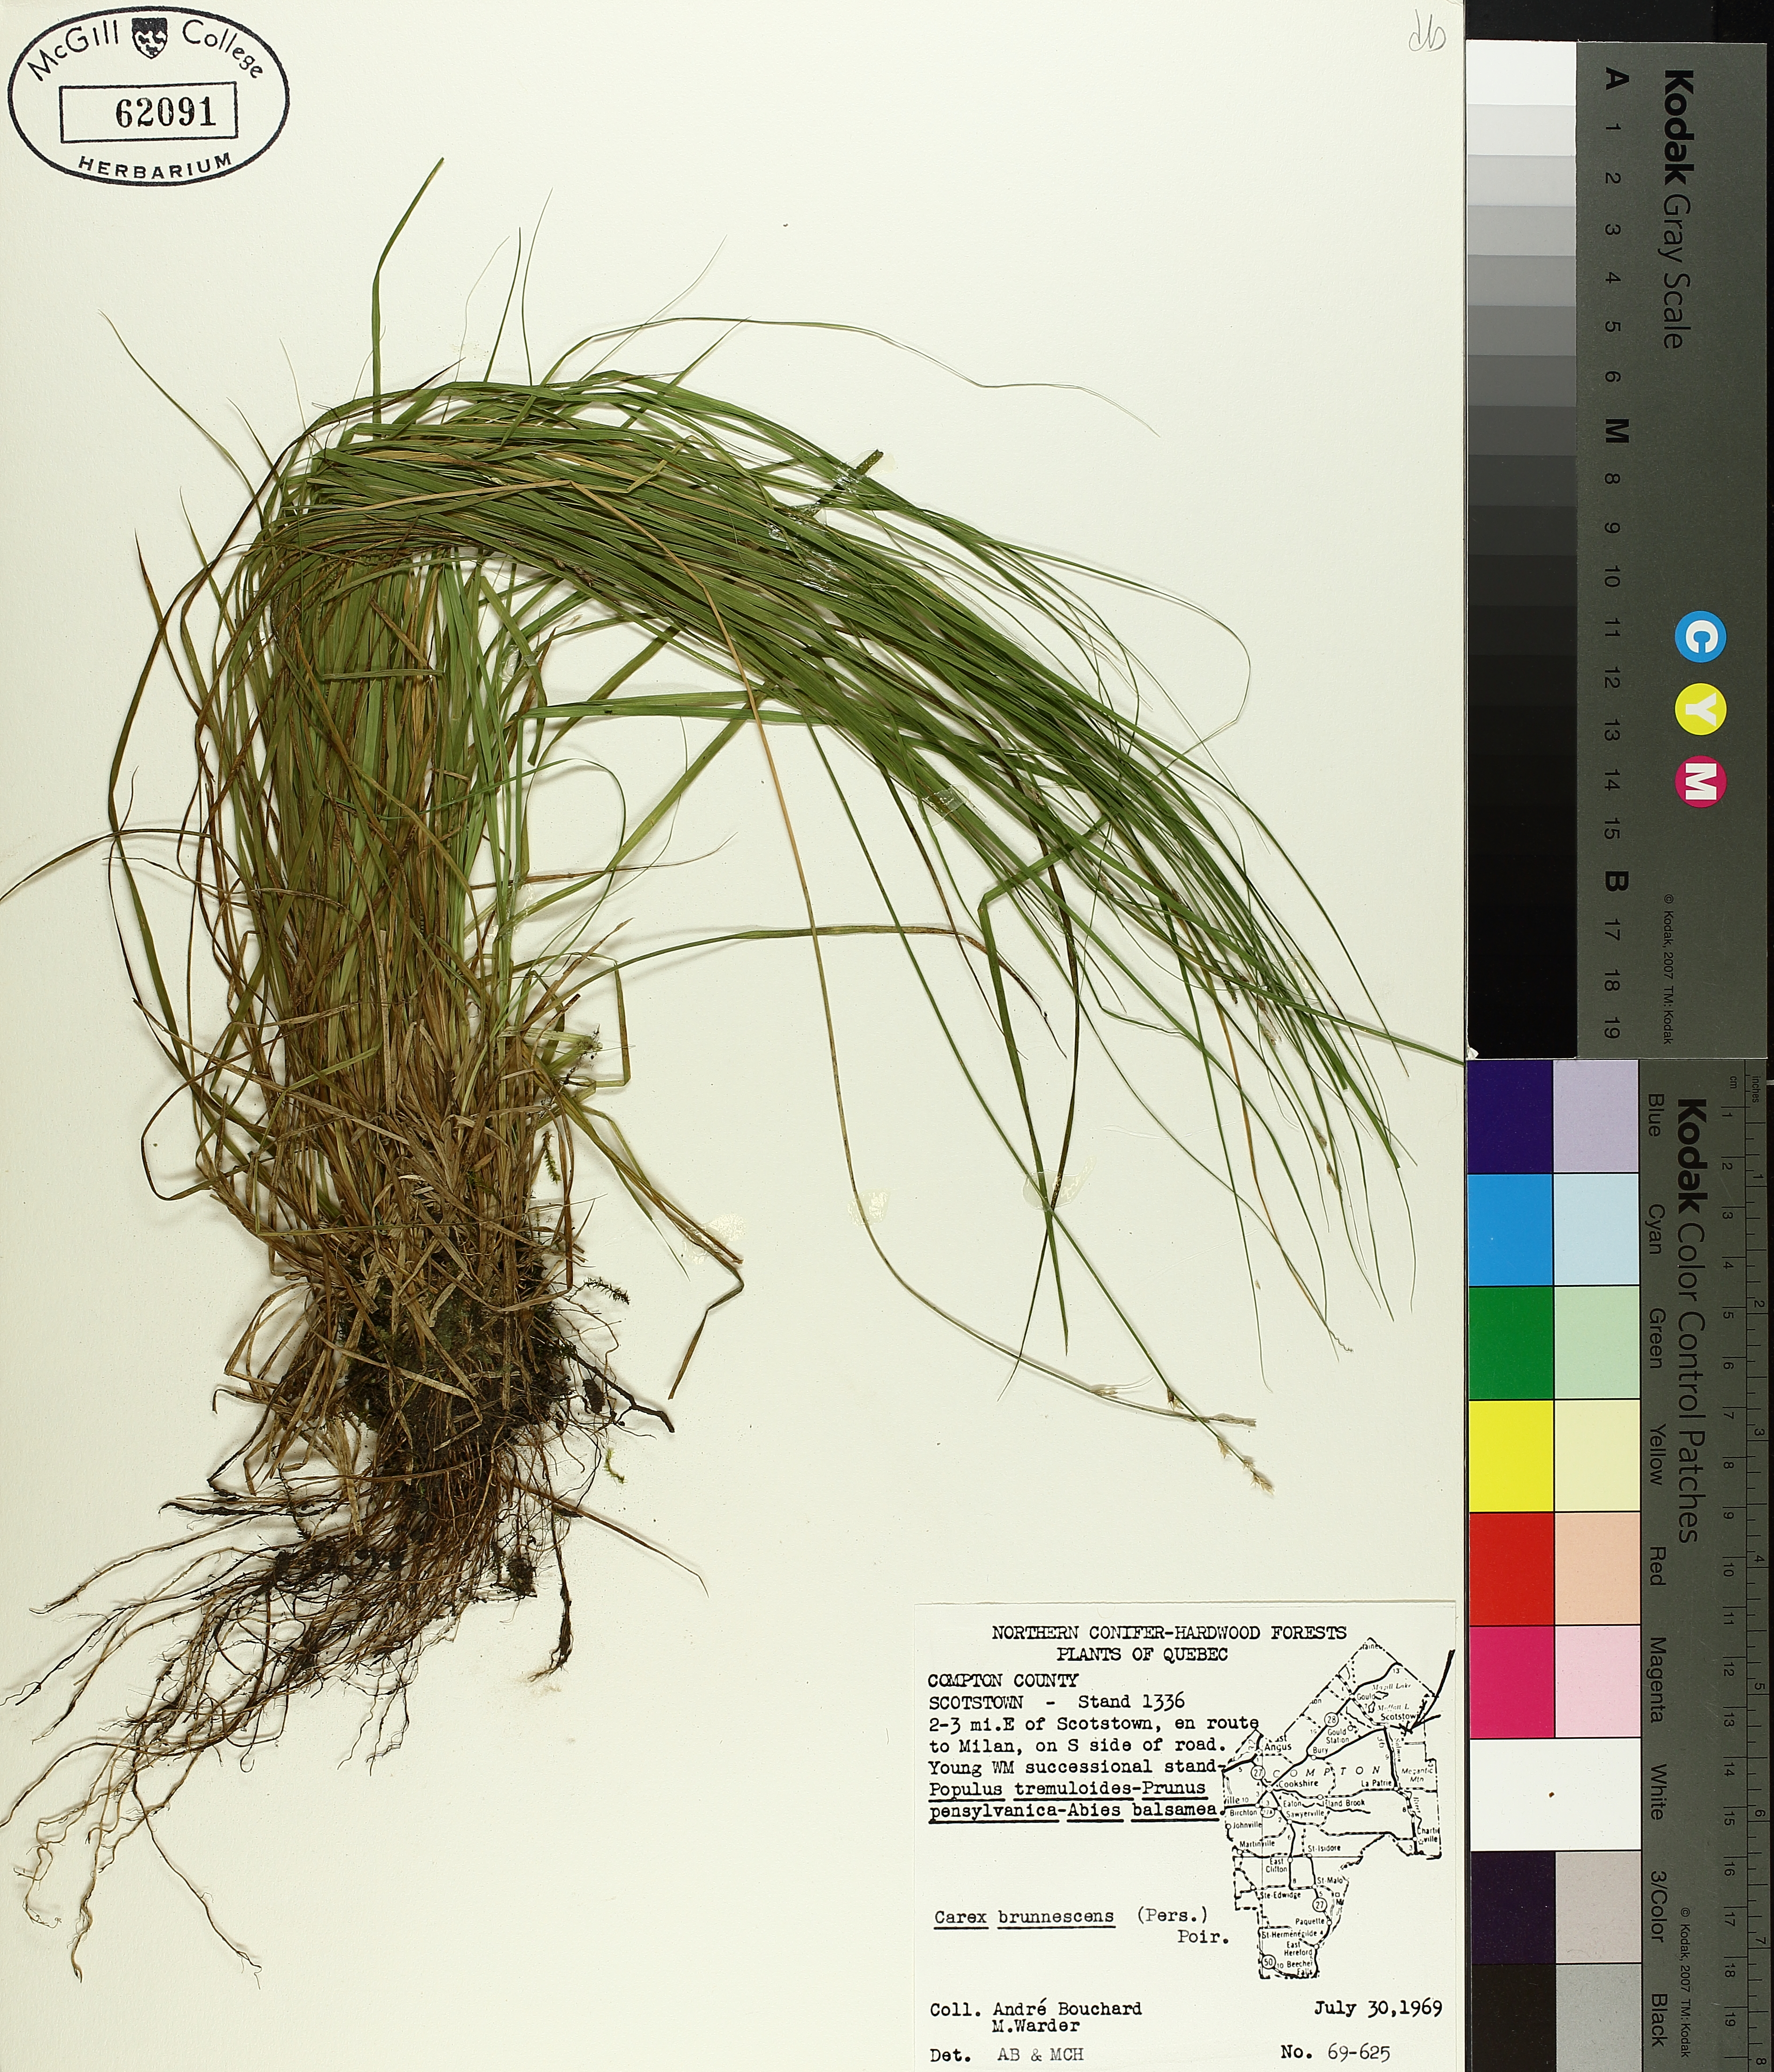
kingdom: Plantae
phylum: Tracheophyta
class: Liliopsida
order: Poales
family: Cyperaceae
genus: Carex
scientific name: Carex brunnescens
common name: Brown sedge
